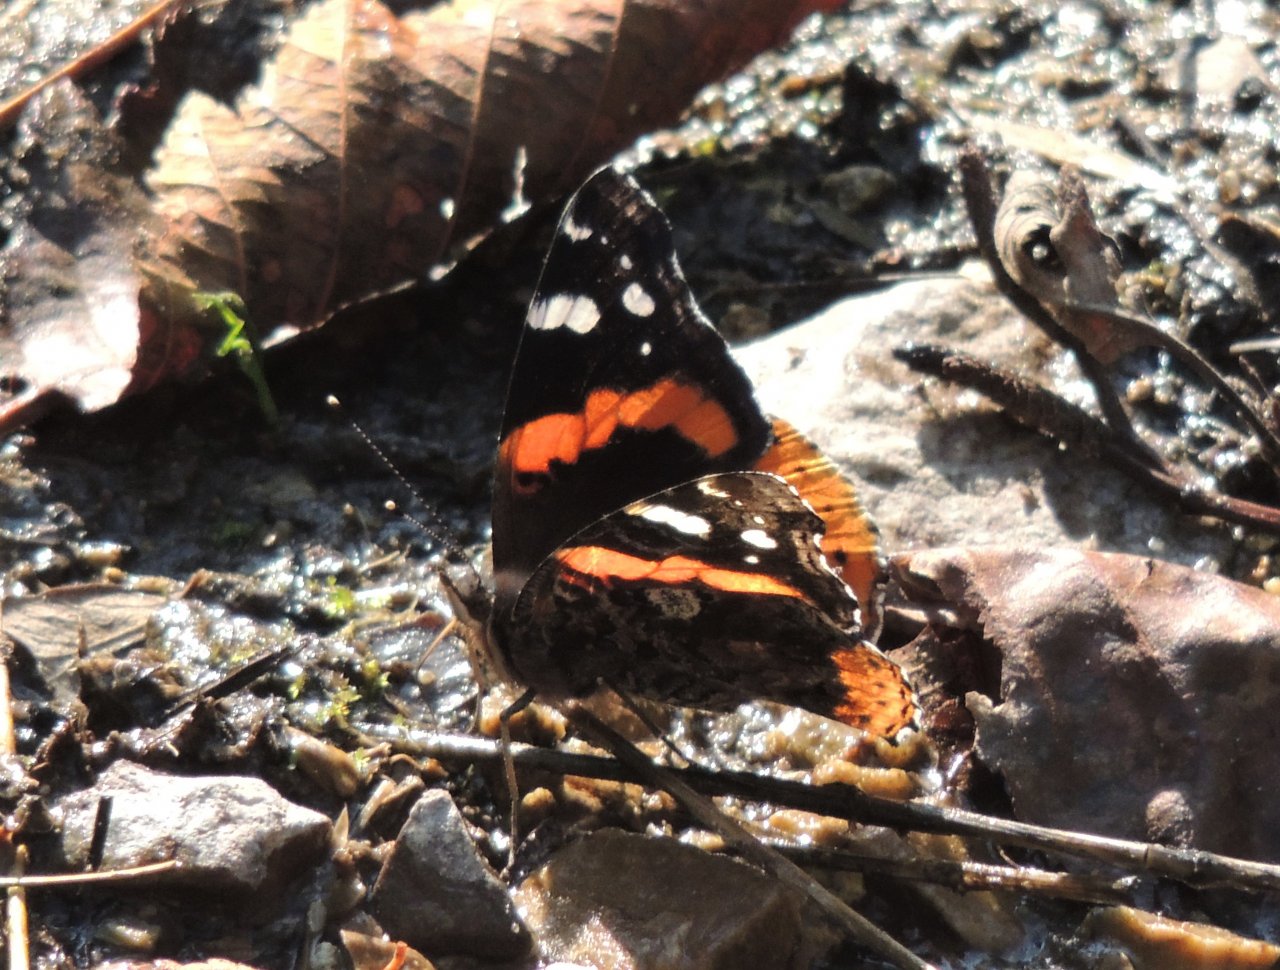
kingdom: Animalia
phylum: Arthropoda
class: Insecta
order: Lepidoptera
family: Nymphalidae
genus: Vanessa
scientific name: Vanessa atalanta
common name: Red Admiral
